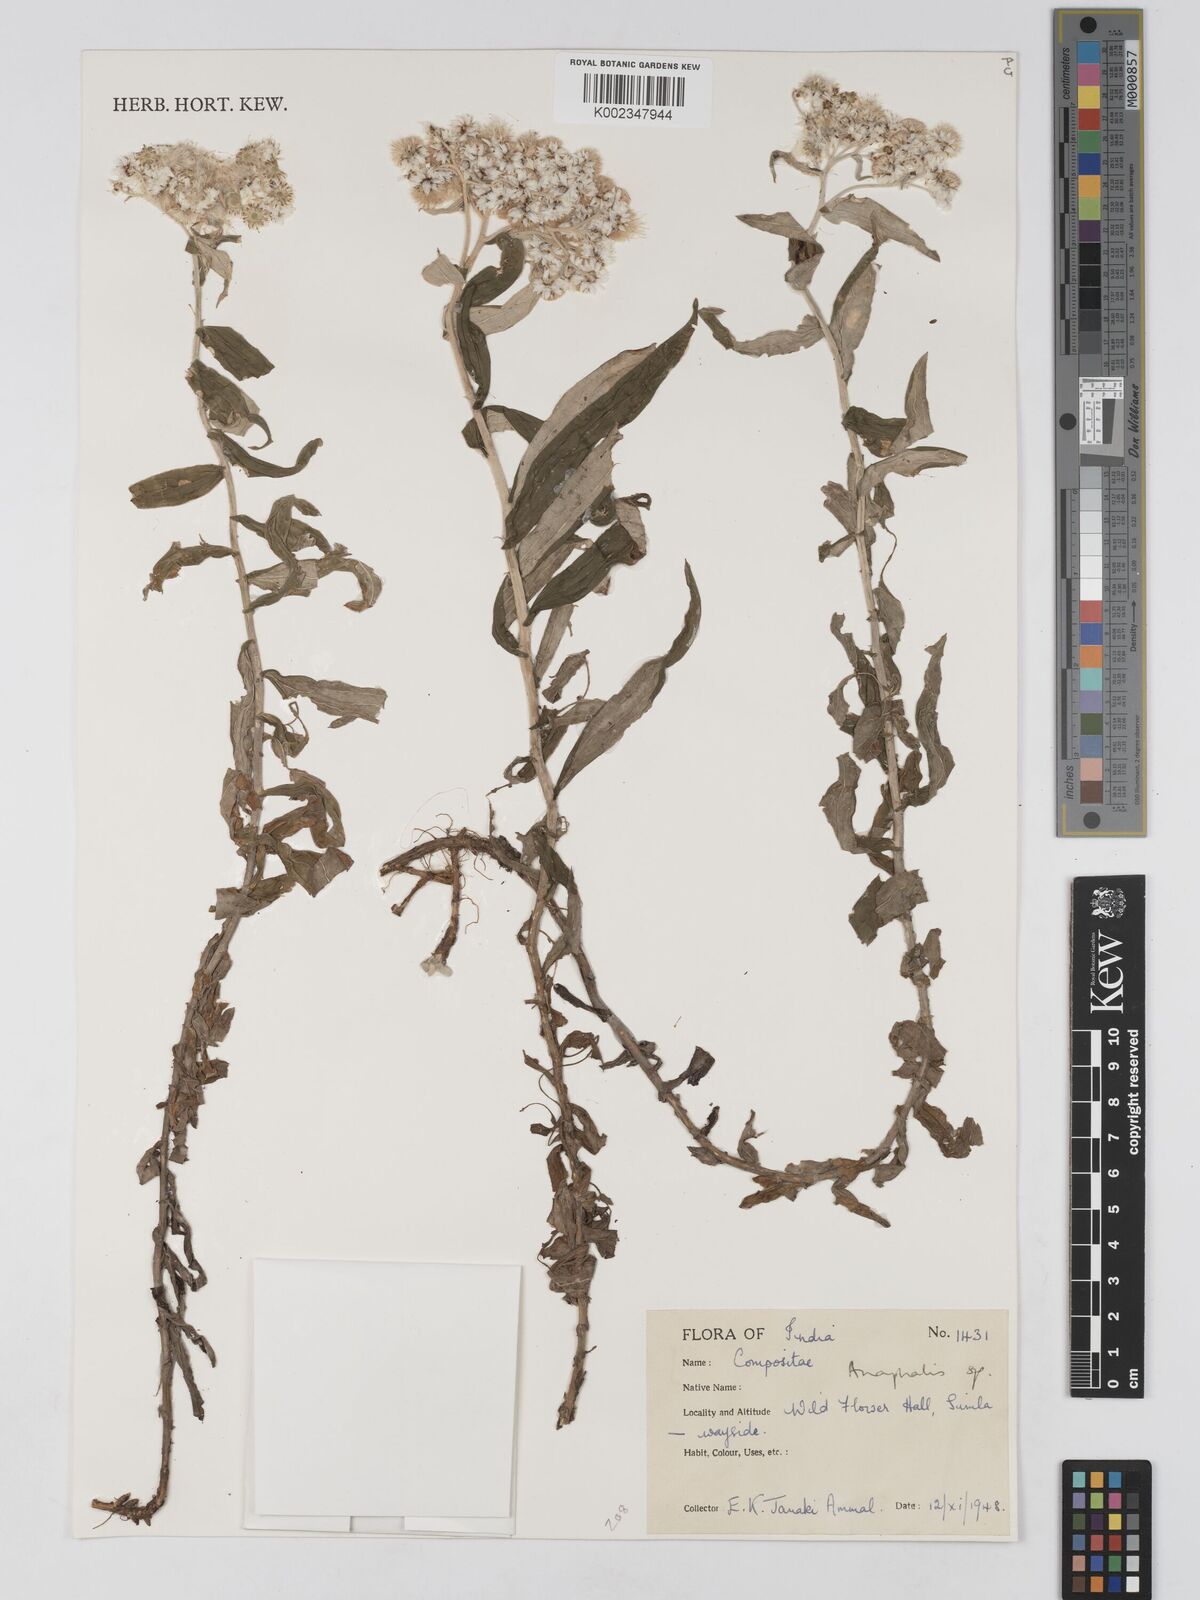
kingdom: Plantae
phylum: Tracheophyta
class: Magnoliopsida
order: Asterales
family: Asteraceae
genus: Anaphalis
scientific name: Anaphalis leptophylla
